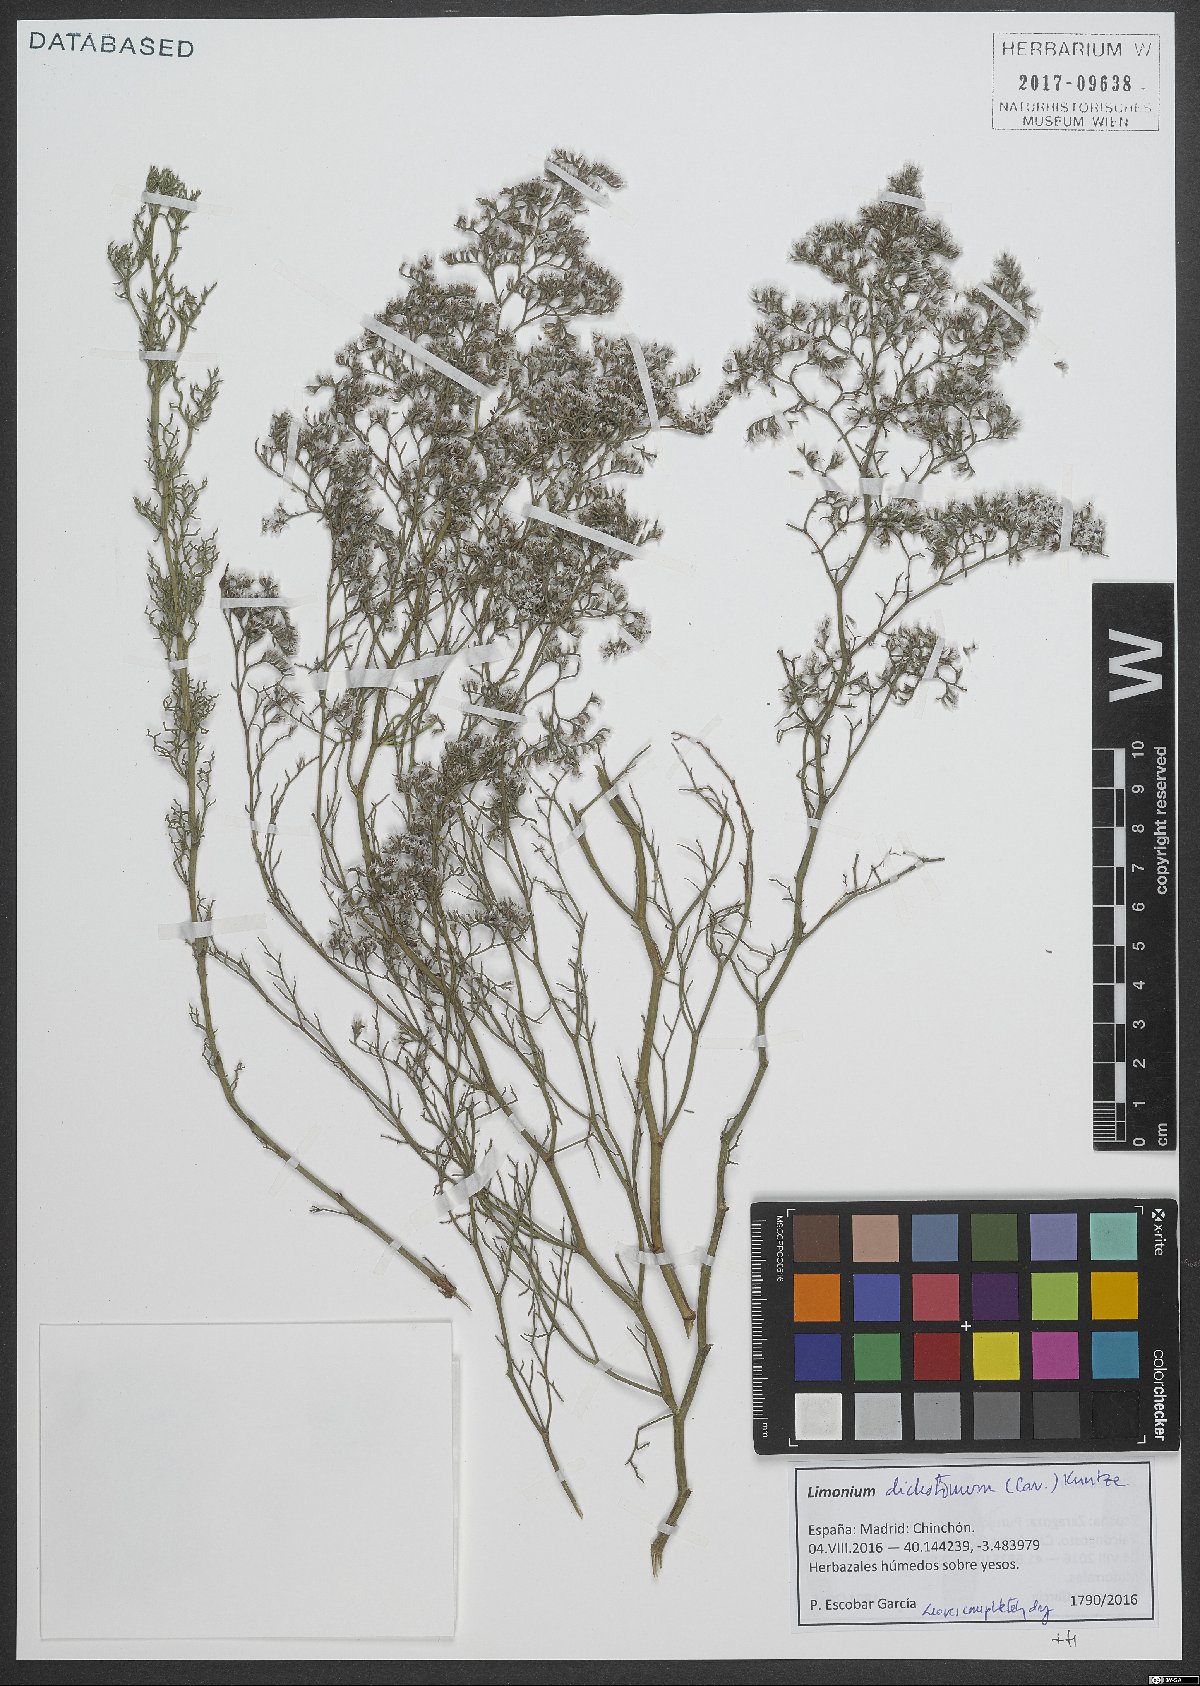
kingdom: Plantae
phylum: Tracheophyta
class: Magnoliopsida
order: Caryophyllales
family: Plumbaginaceae
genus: Limonium
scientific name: Limonium dichotomum
